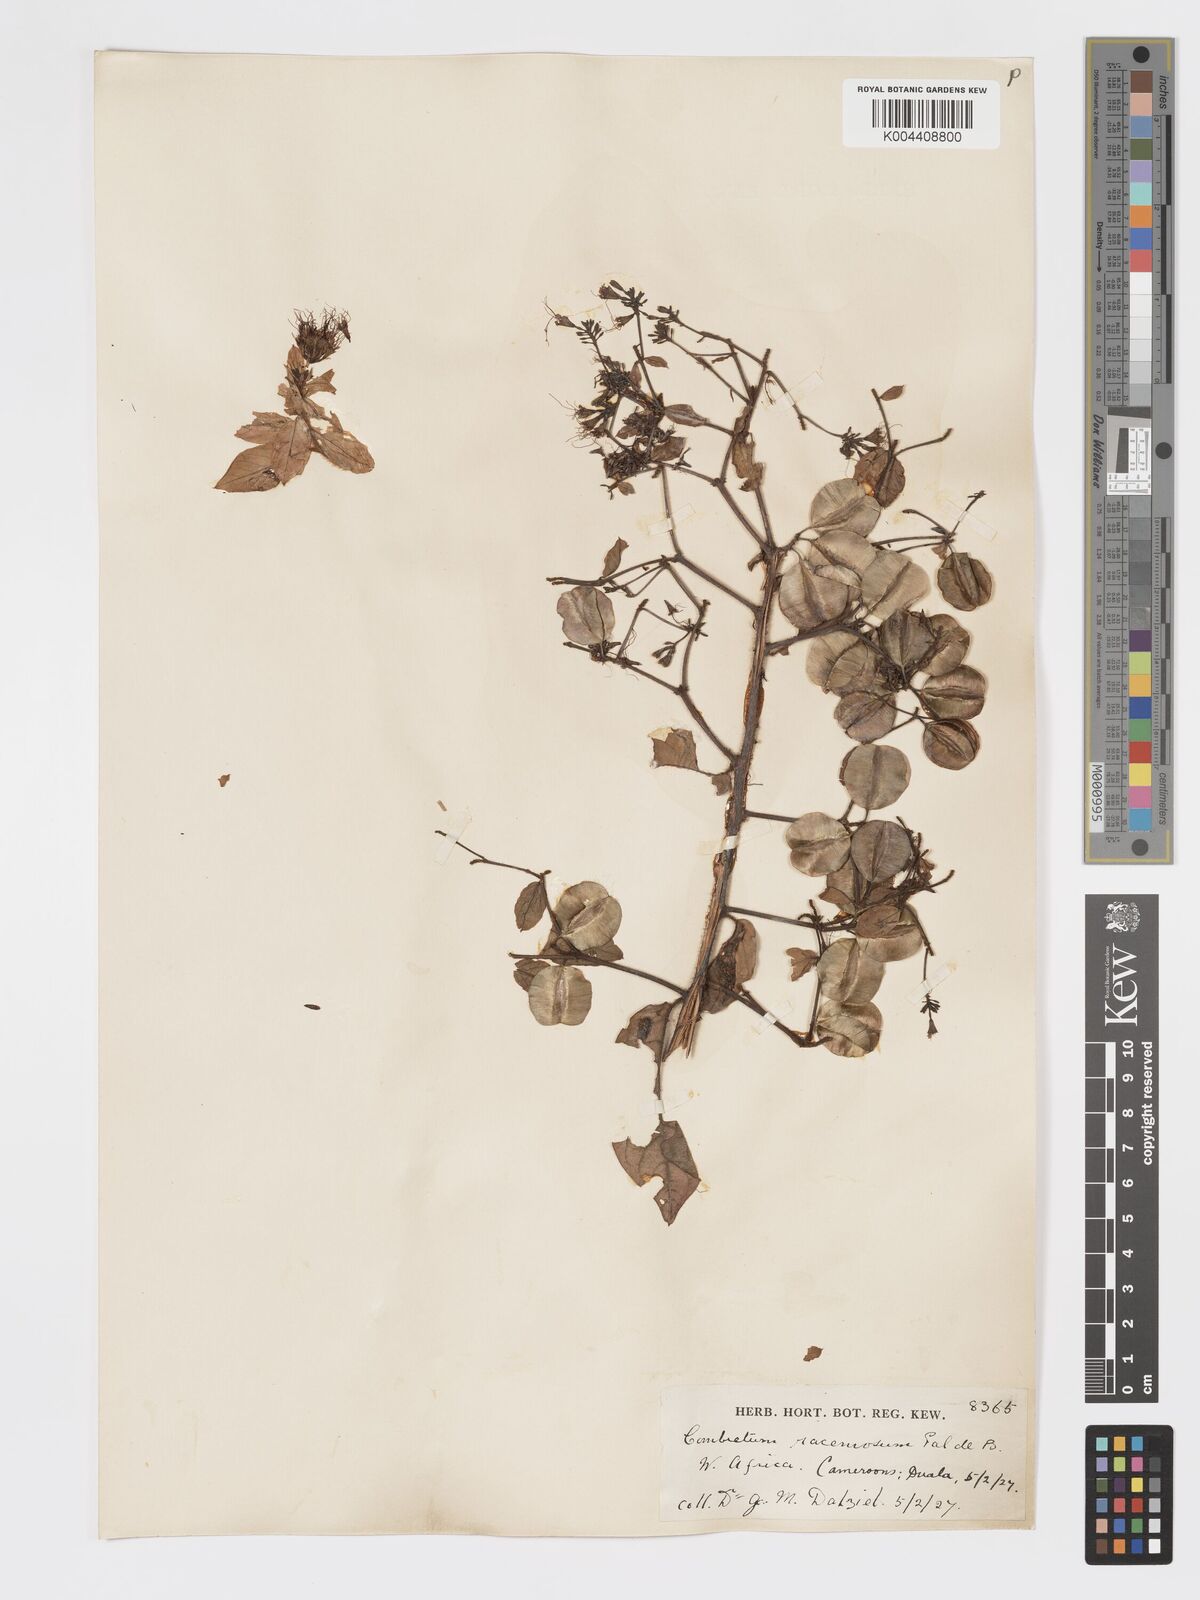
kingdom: Plantae
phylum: Tracheophyta
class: Magnoliopsida
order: Myrtales
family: Combretaceae
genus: Combretum
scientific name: Combretum racemosum
